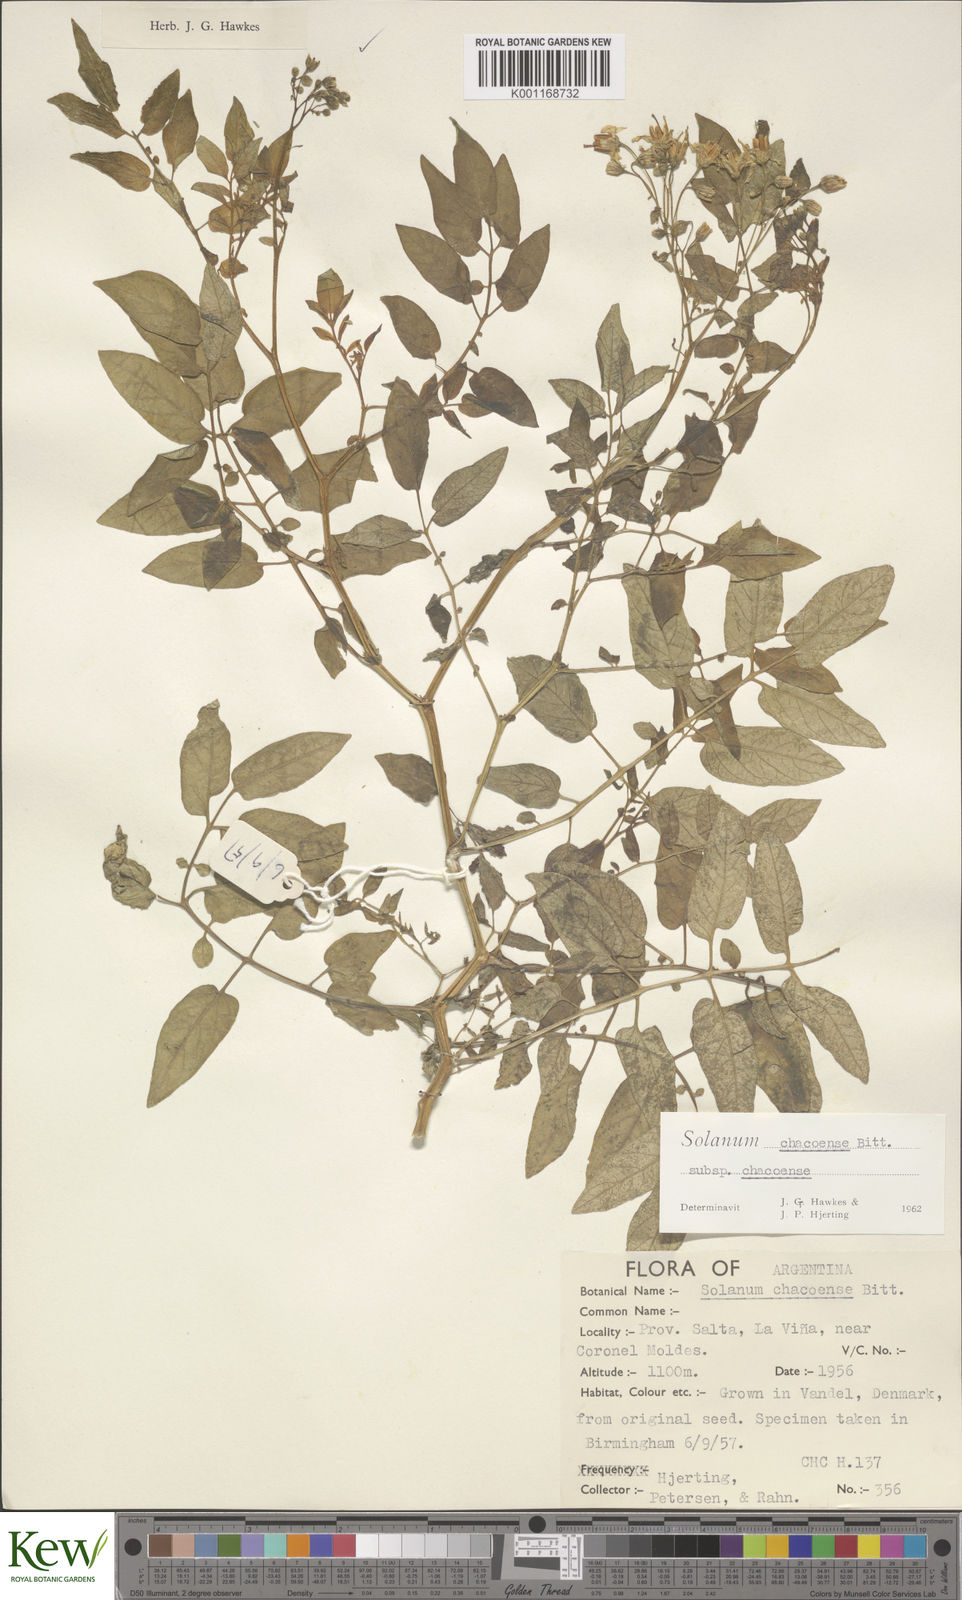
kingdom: Plantae
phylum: Tracheophyta
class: Magnoliopsida
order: Solanales
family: Solanaceae
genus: Solanum
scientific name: Solanum chacoense
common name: Chaco potato
